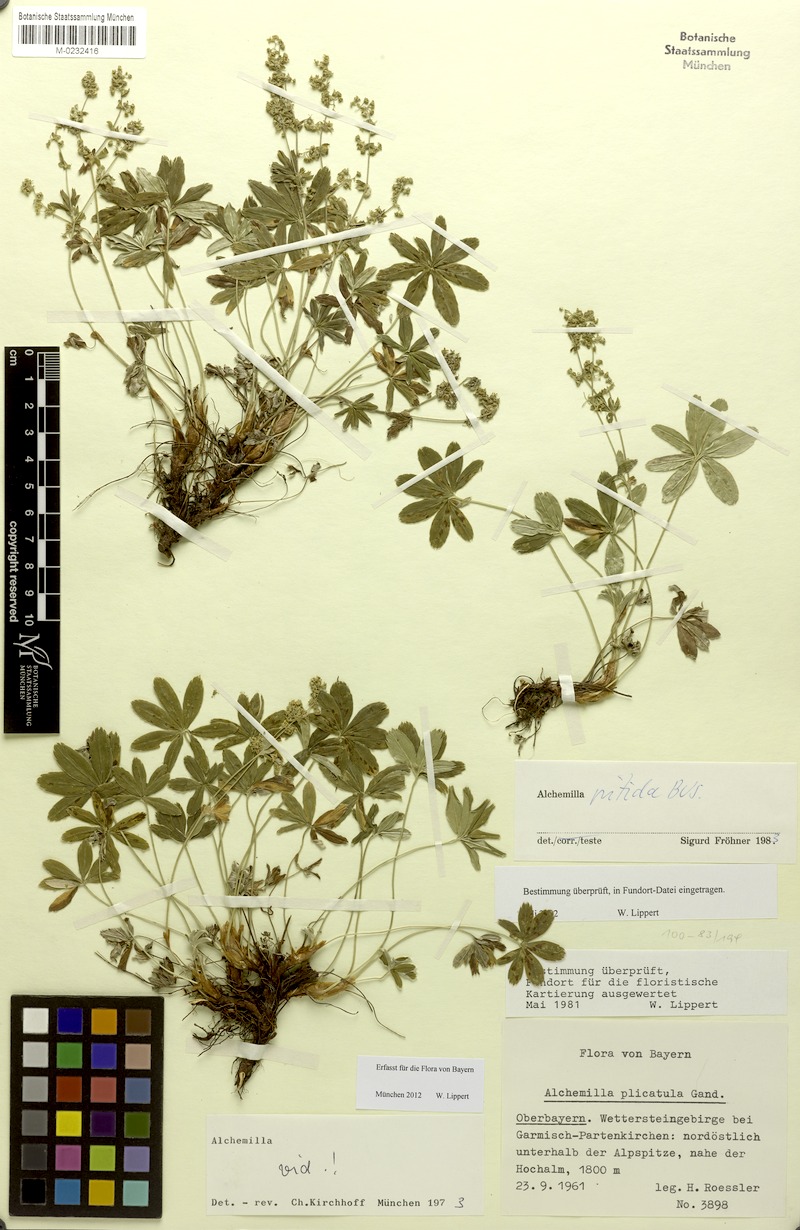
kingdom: Plantae
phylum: Tracheophyta
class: Magnoliopsida
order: Rosales
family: Rosaceae
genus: Alchemilla
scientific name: Alchemilla nitida
